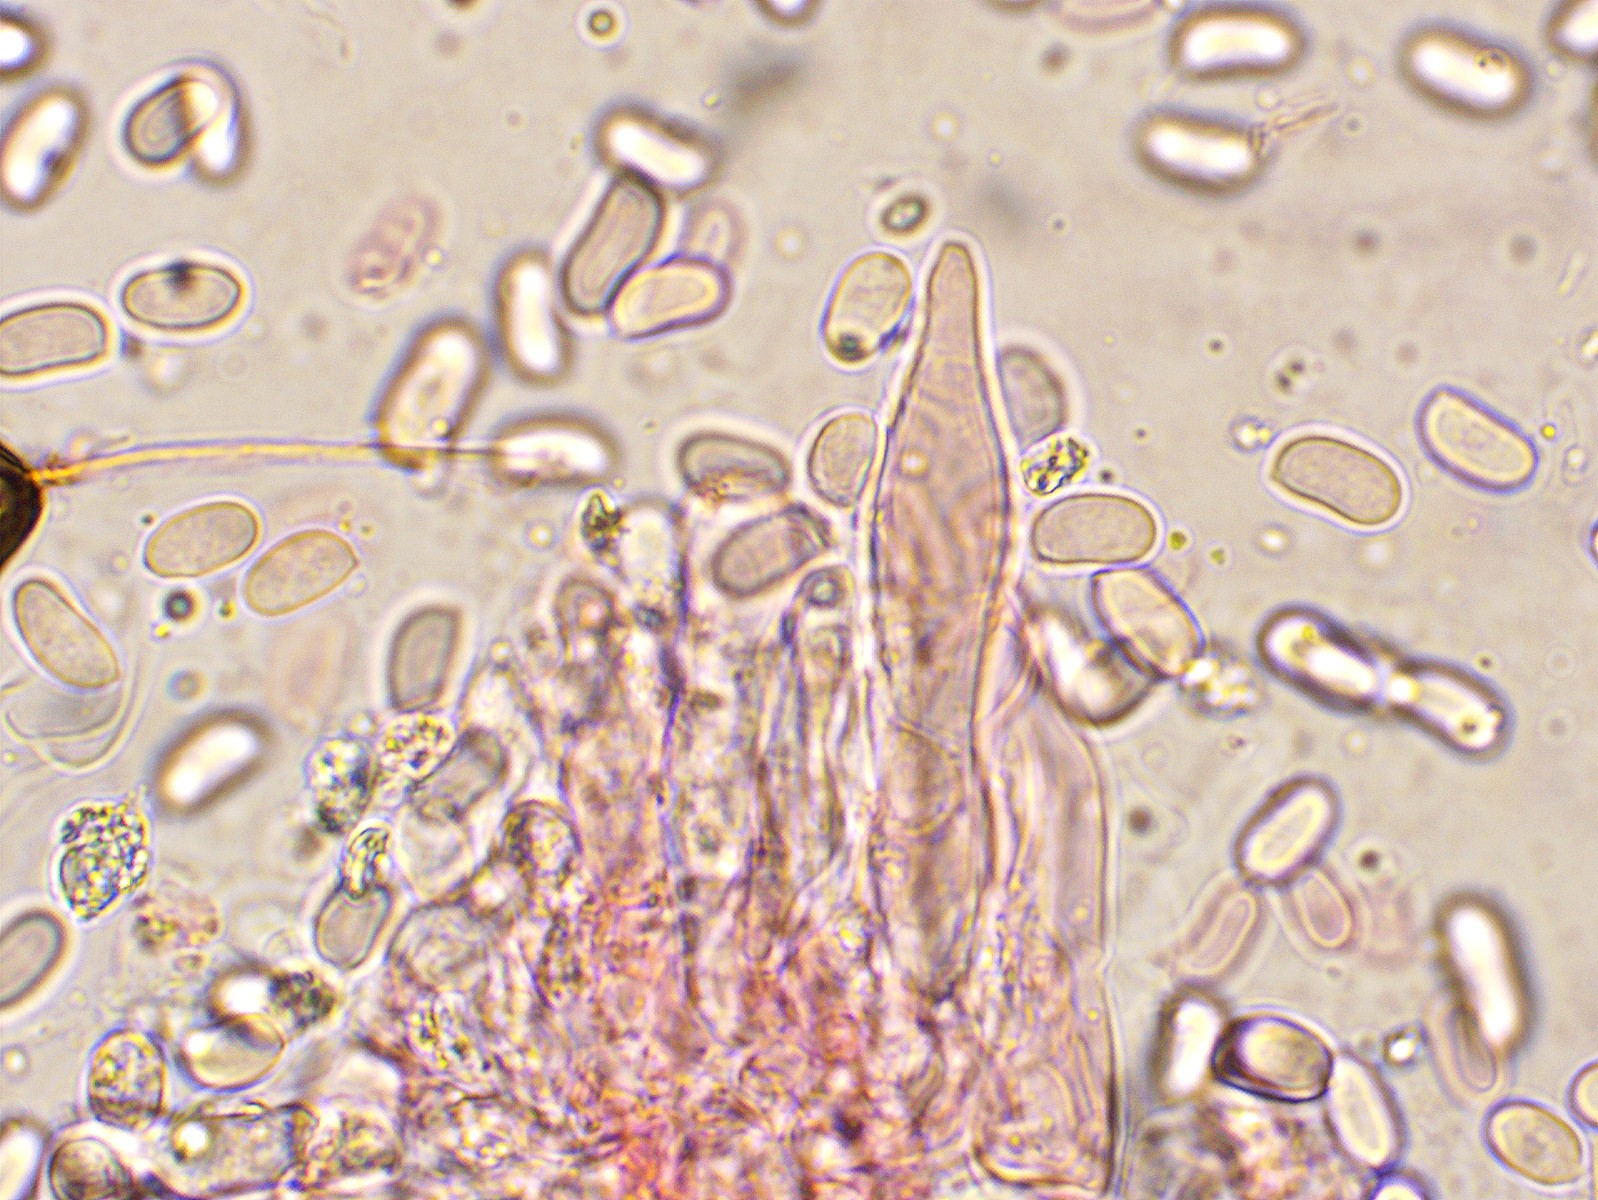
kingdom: Fungi
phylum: Basidiomycota
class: Agaricomycetes
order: Hymenochaetales
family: Rickenellaceae
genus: Peniophorella
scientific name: Peniophorella praetermissa
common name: almindelig kalkskind
